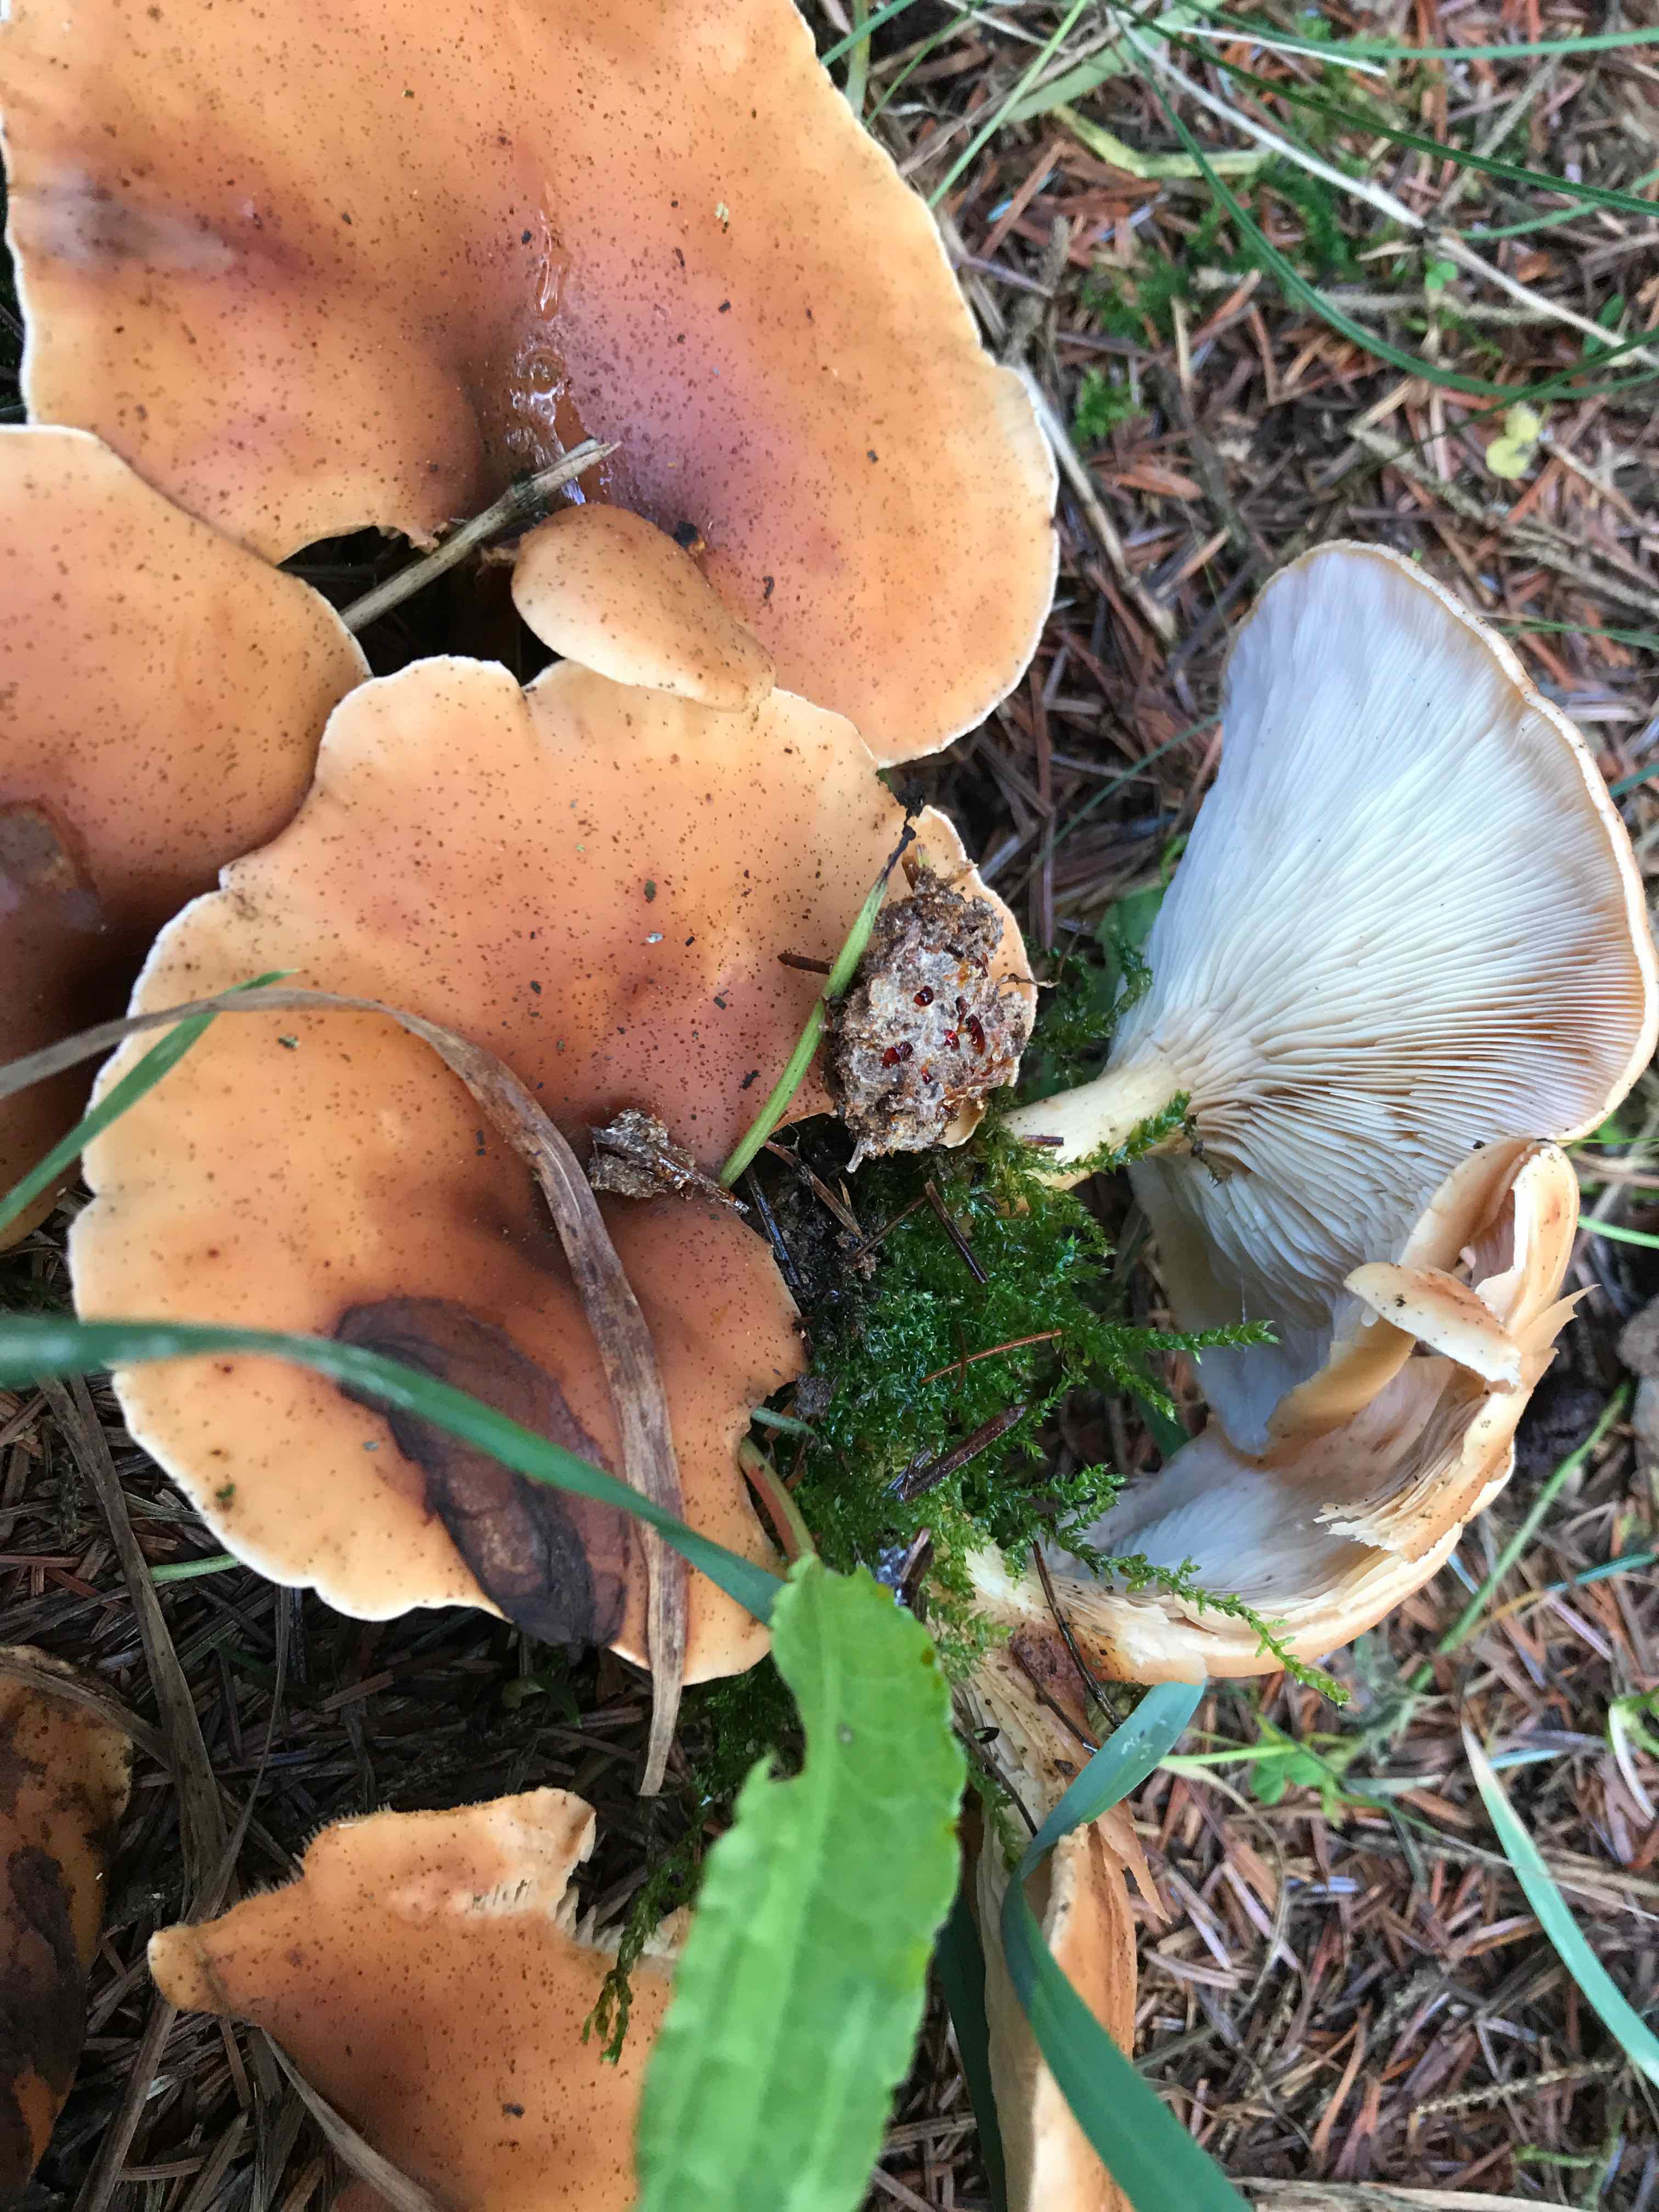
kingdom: Fungi
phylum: Basidiomycota
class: Agaricomycetes
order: Agaricales
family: Tricholomataceae
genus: Paralepista
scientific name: Paralepista flaccida
